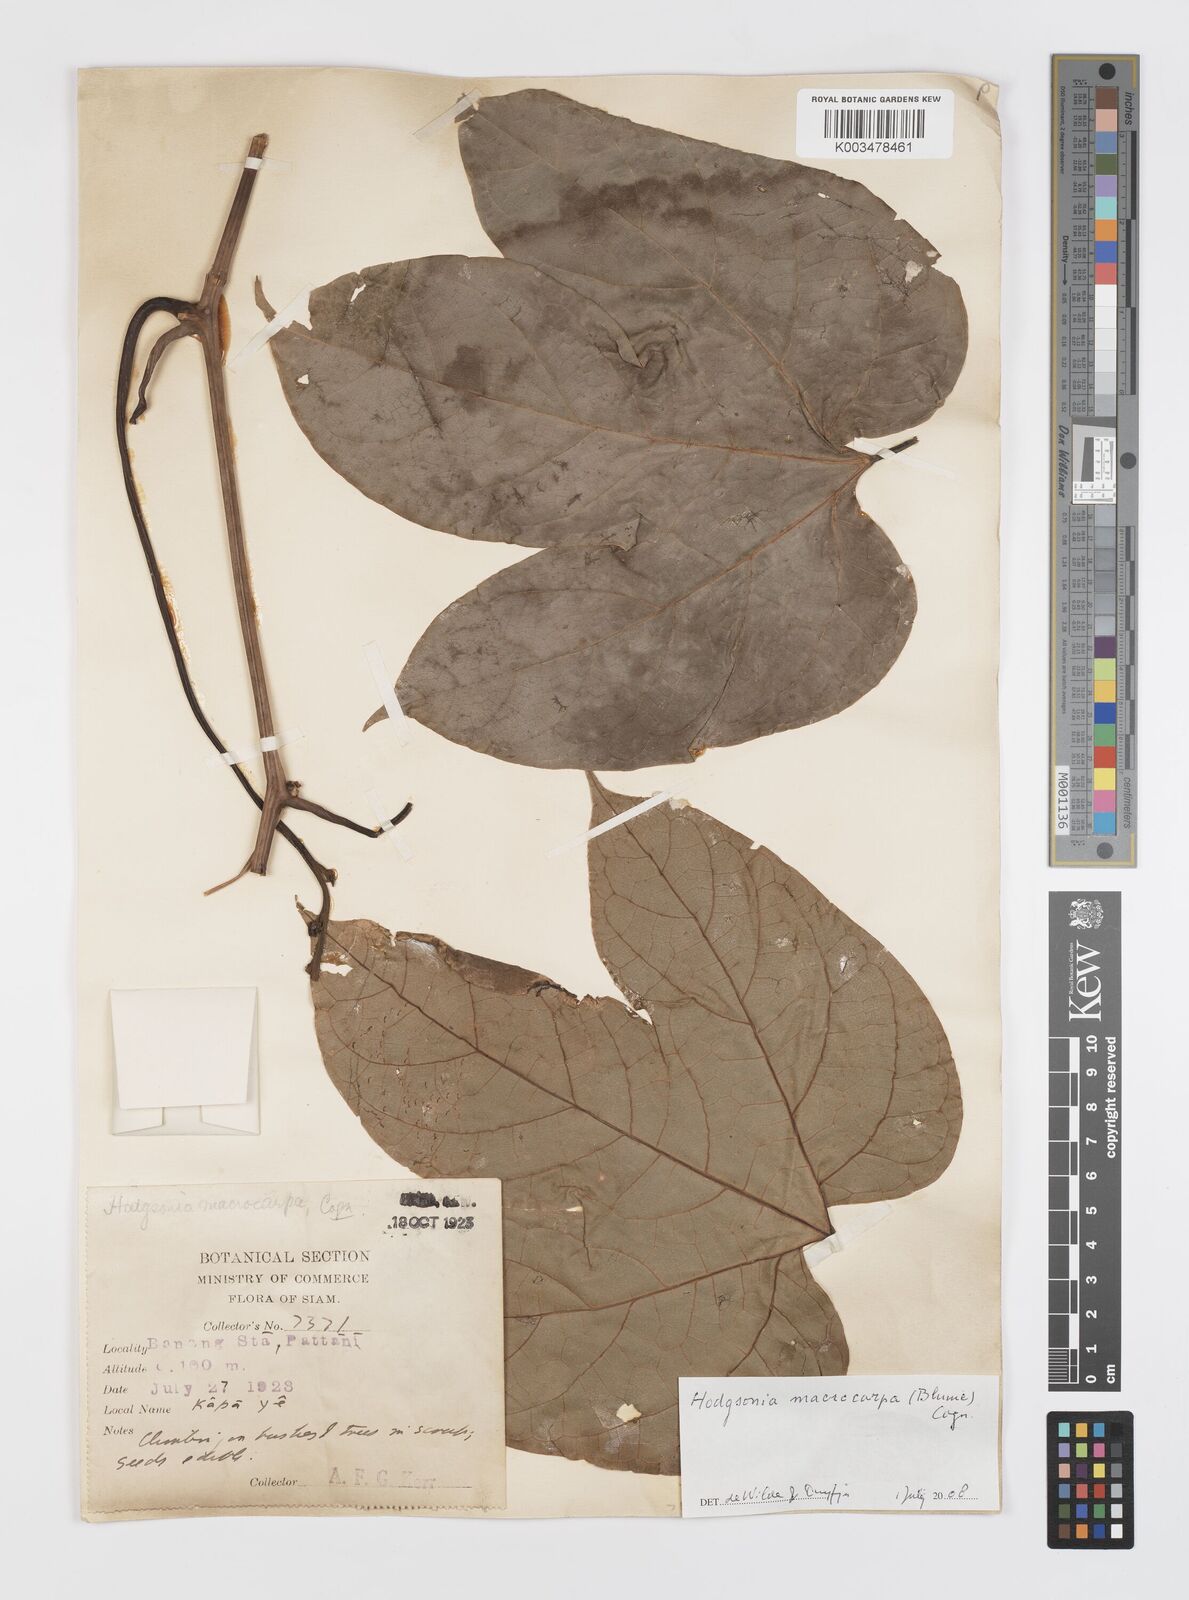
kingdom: Plantae
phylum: Tracheophyta
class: Magnoliopsida
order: Cucurbitales
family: Cucurbitaceae
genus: Hodgsonia
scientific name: Hodgsonia macrocarpa
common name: Chinese lardfruit
